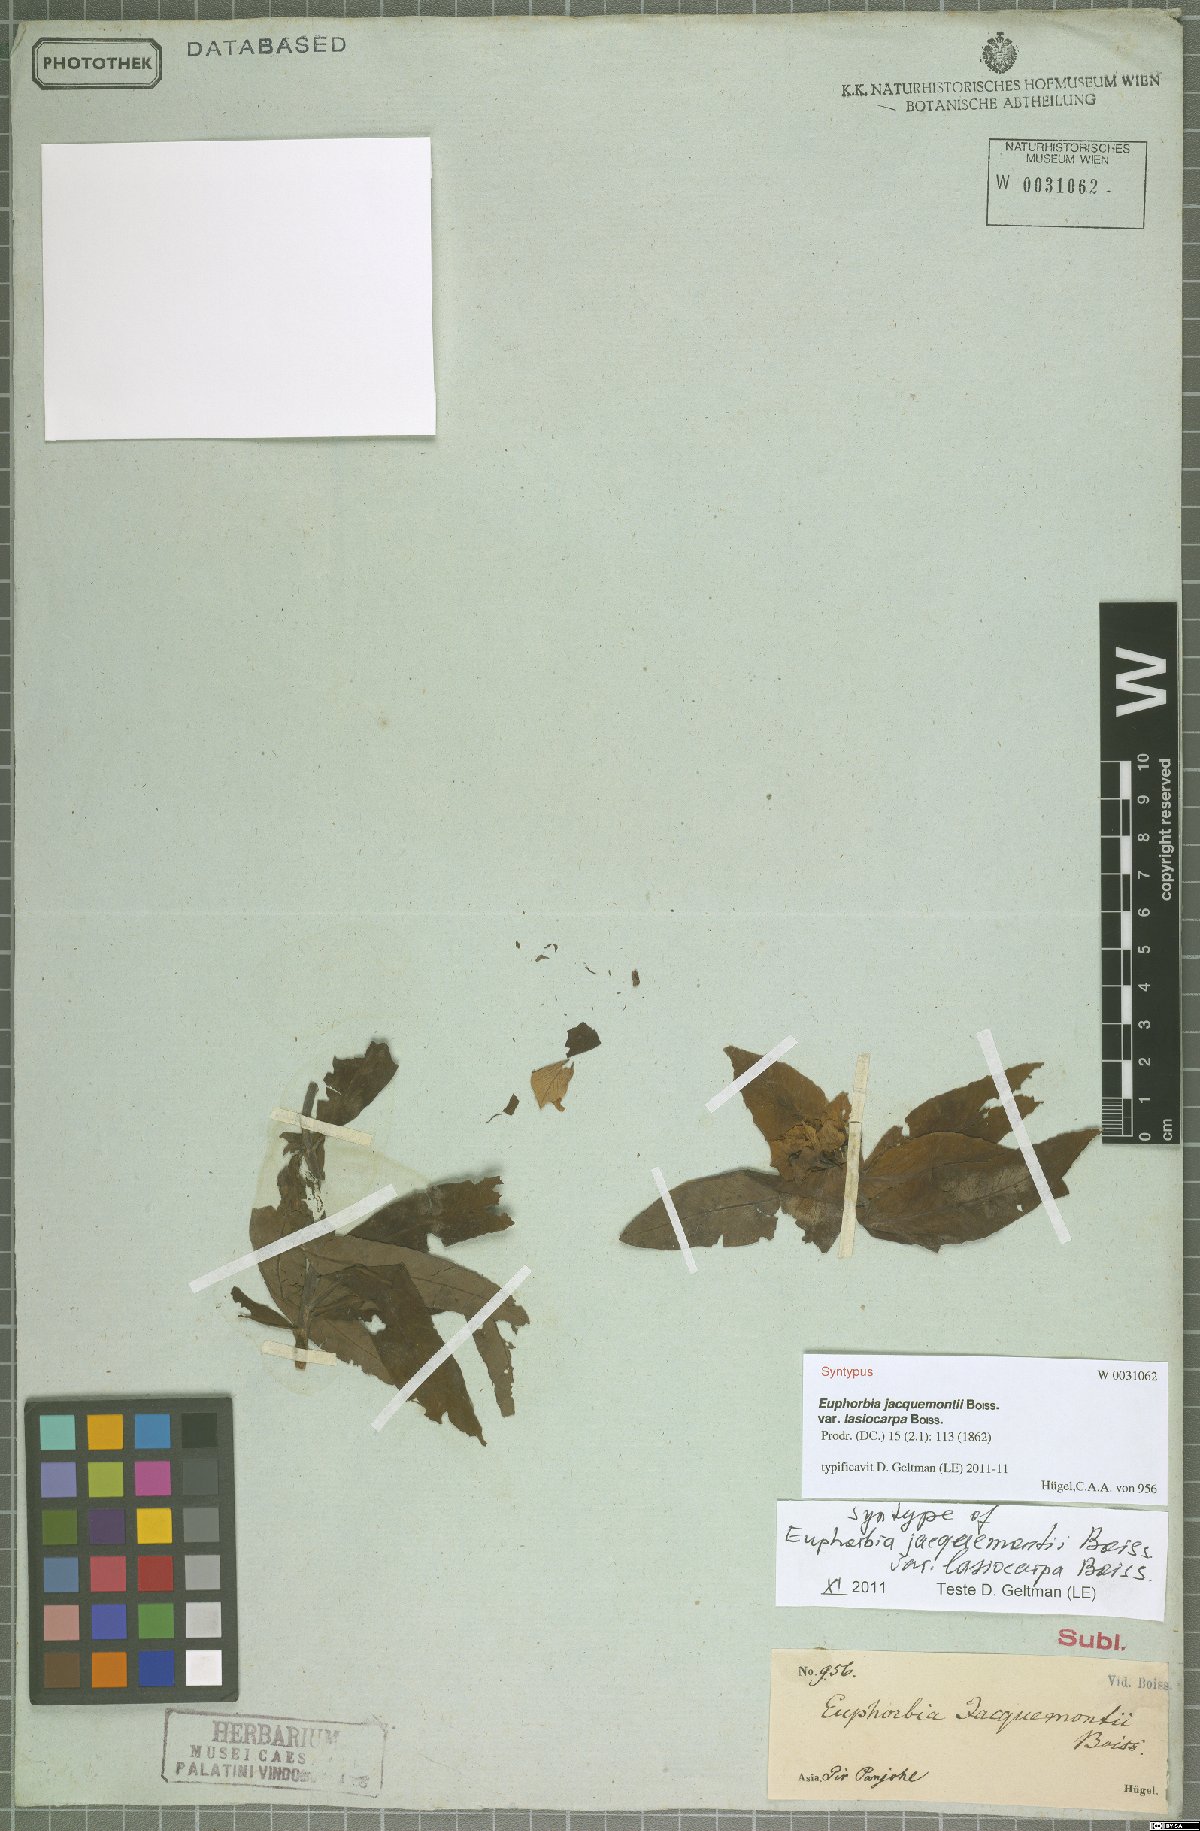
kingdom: Plantae
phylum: Tracheophyta
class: Magnoliopsida
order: Malpighiales
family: Euphorbiaceae
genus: Euphorbia
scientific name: Euphorbia jacquemontii
